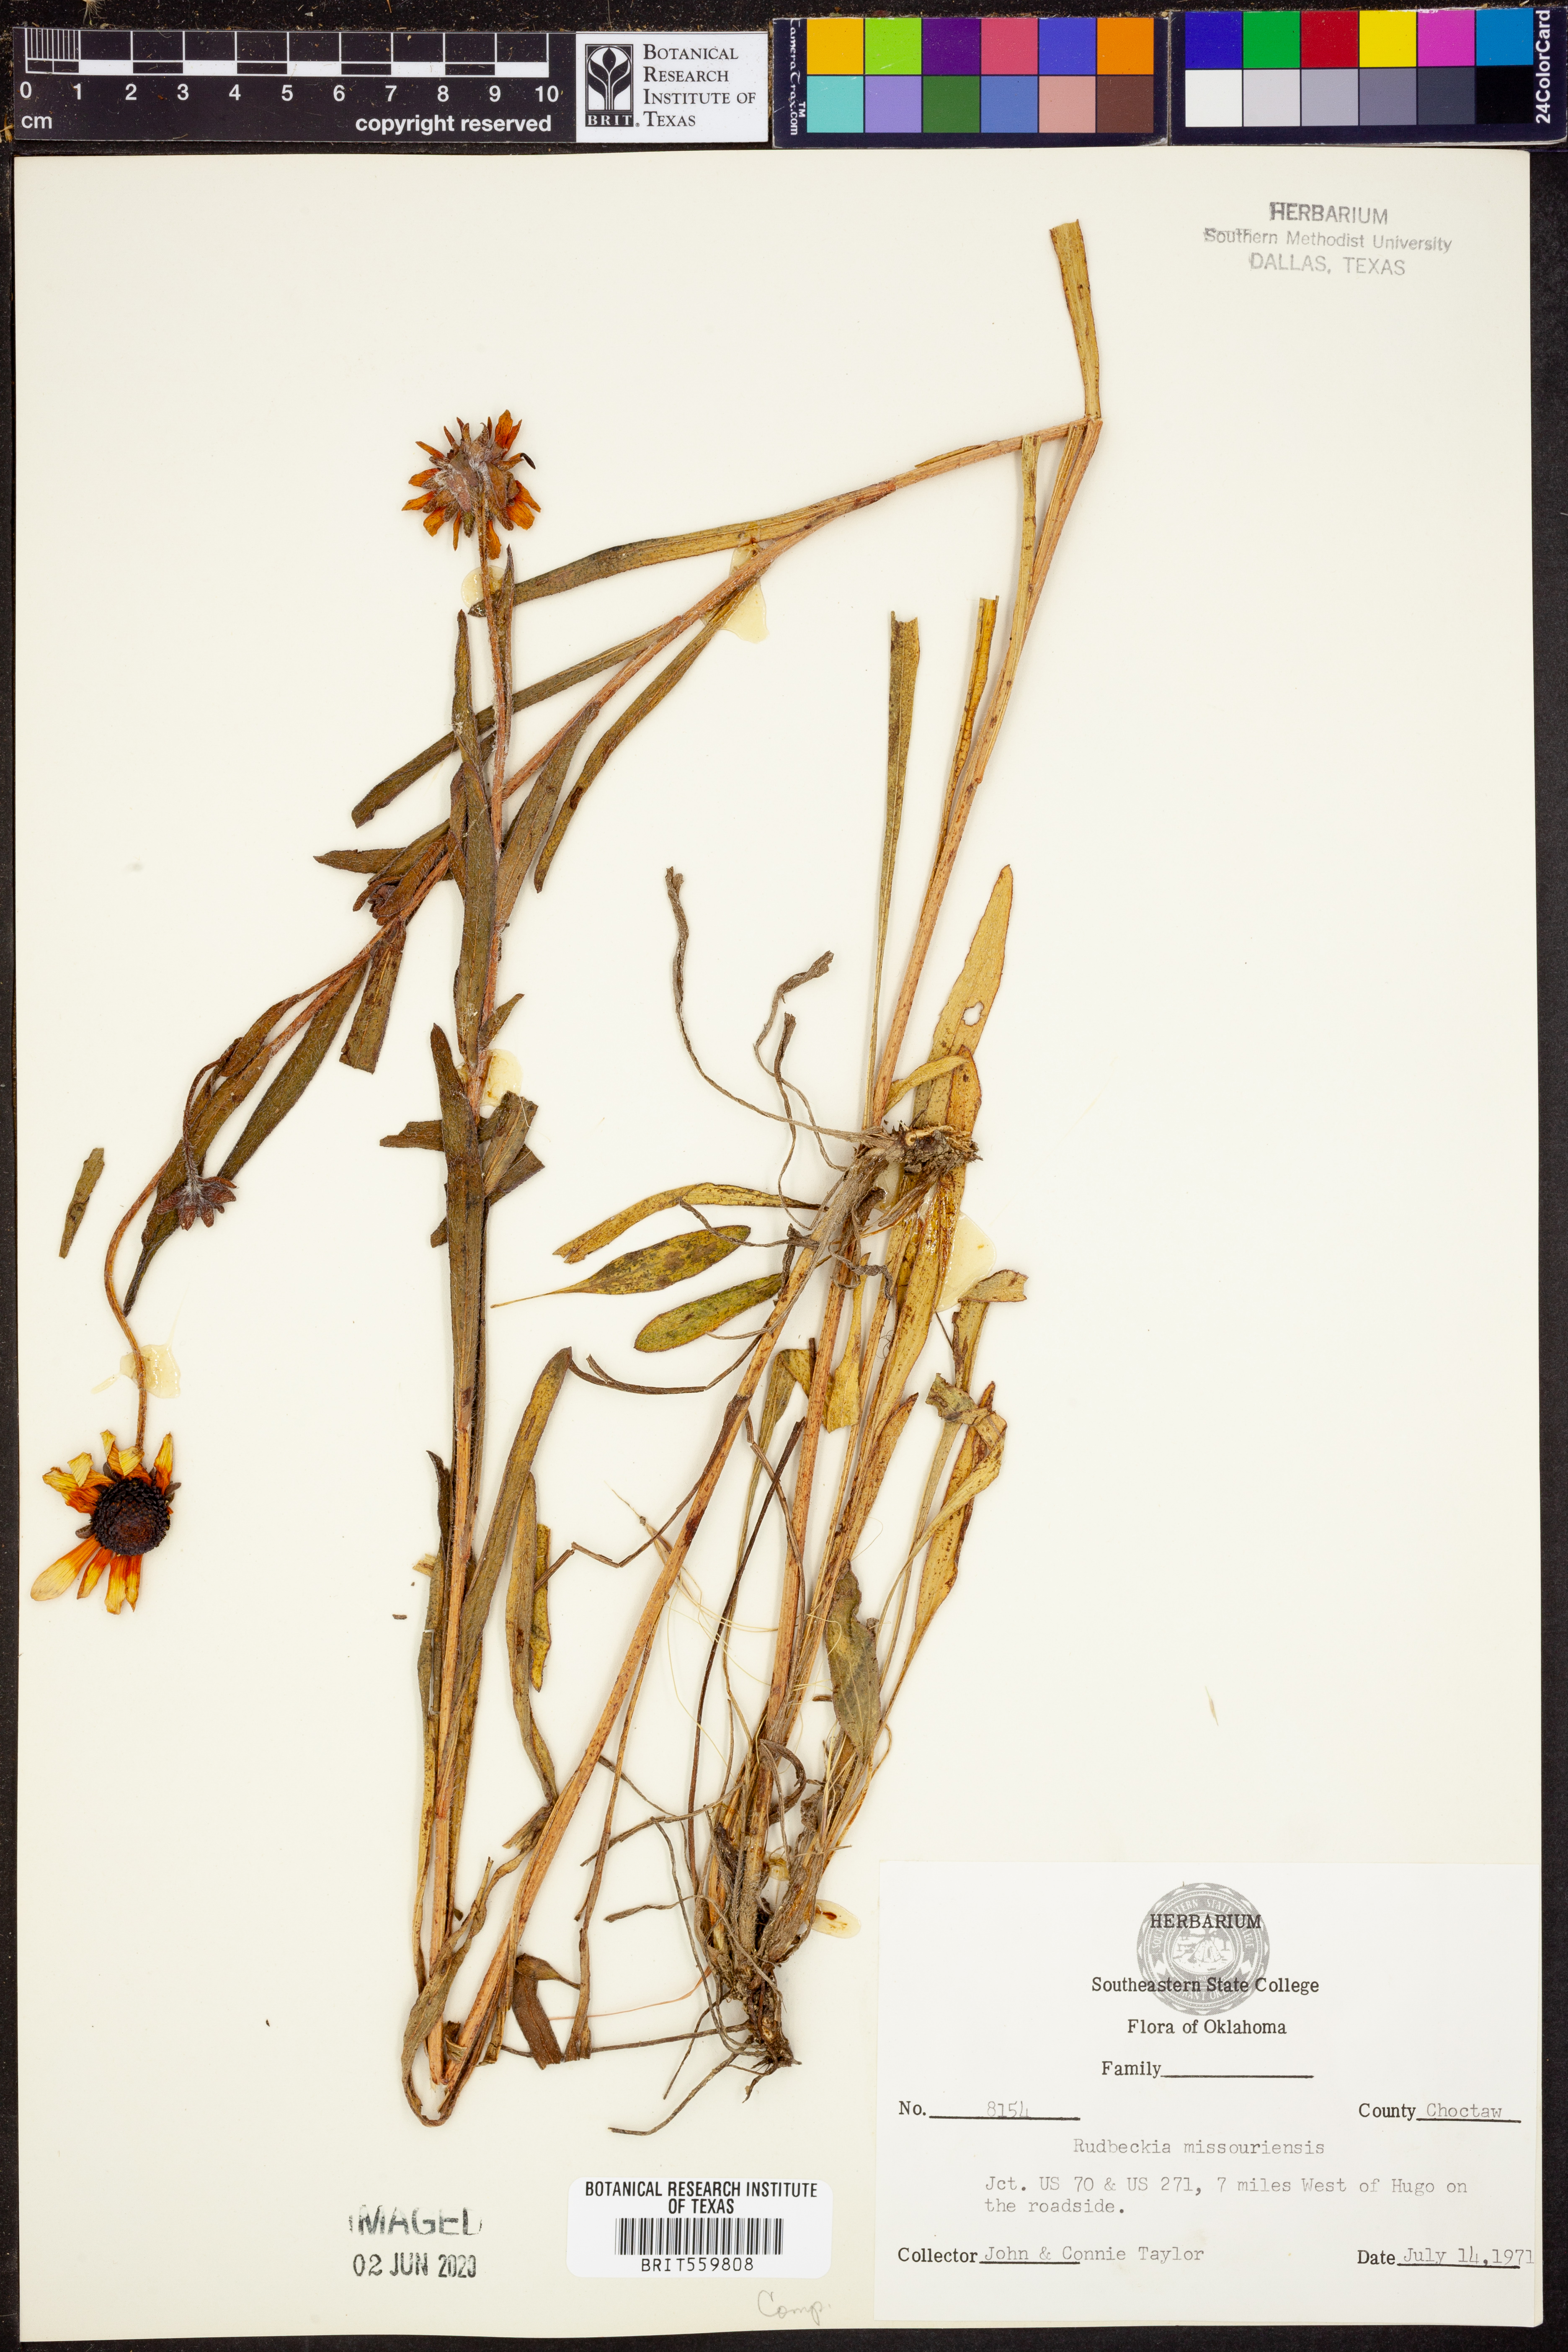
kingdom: Plantae
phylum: Tracheophyta
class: Magnoliopsida
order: Asterales
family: Asteraceae
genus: Rudbeckia
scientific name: Rudbeckia missouriensis
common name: Missouri coneflower
